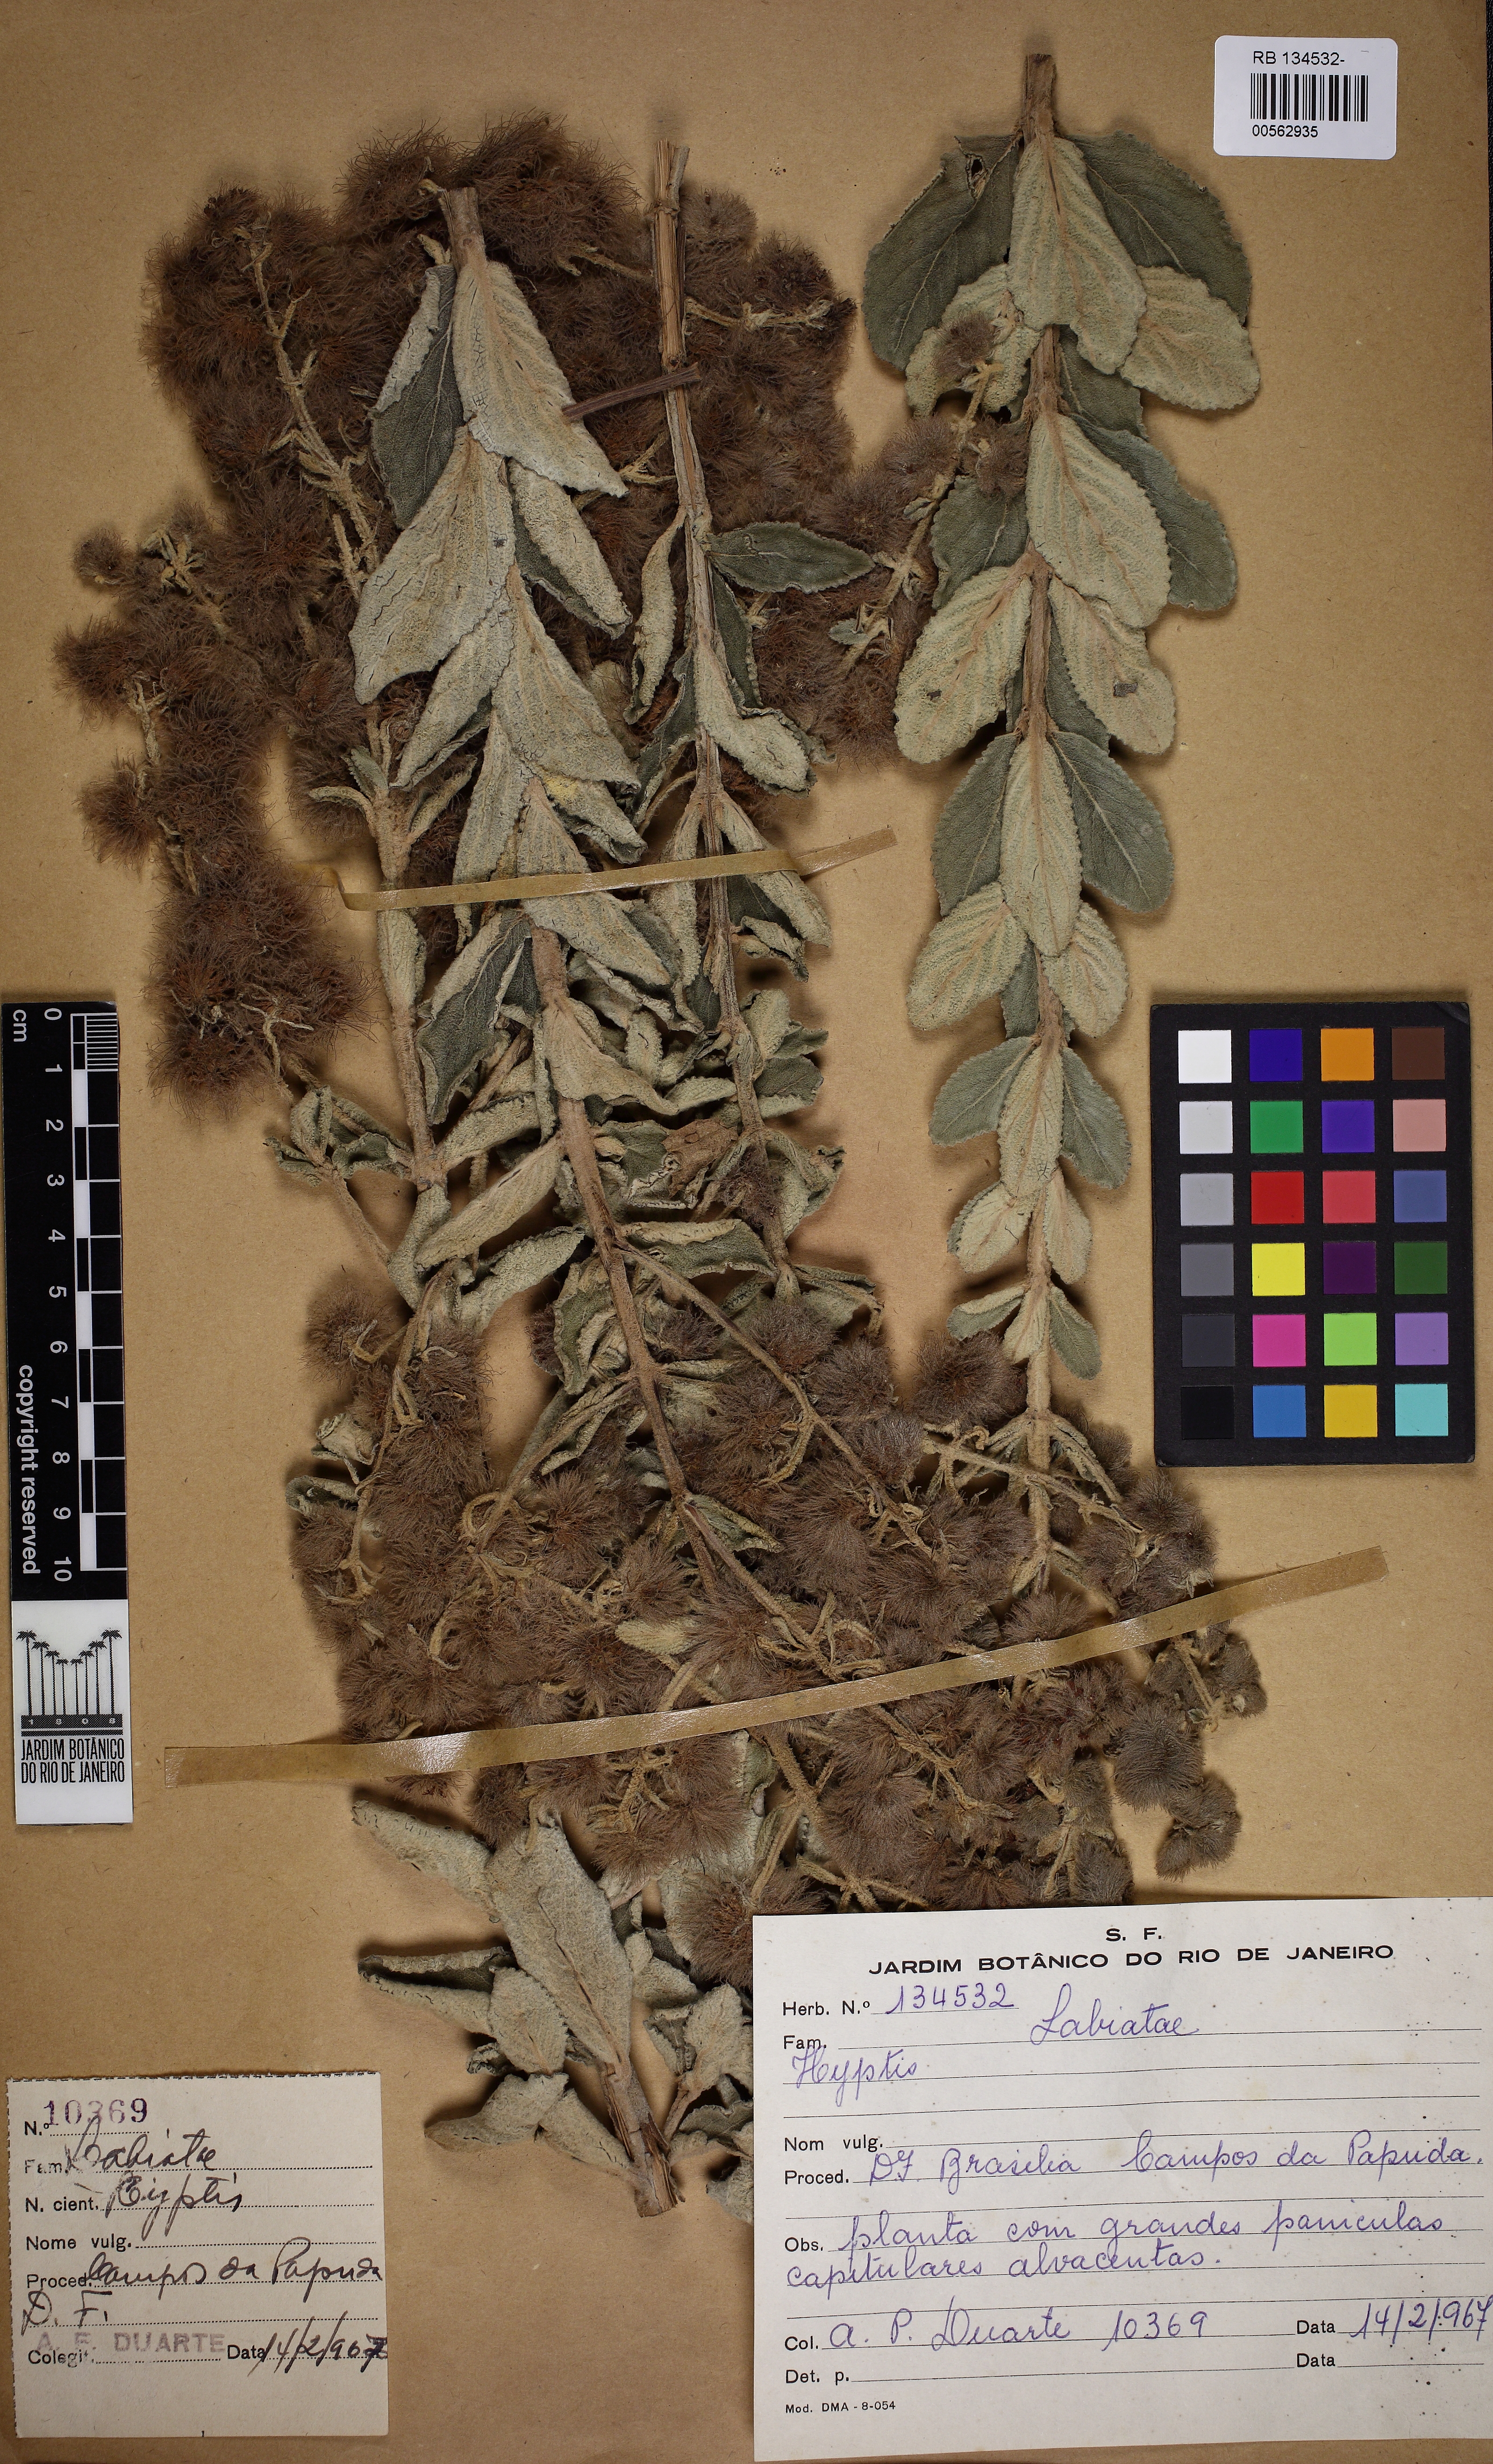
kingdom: Plantae
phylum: Tracheophyta
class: Magnoliopsida
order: Lamiales
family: Lamiaceae
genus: Medusantha
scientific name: Medusantha eriophylla
